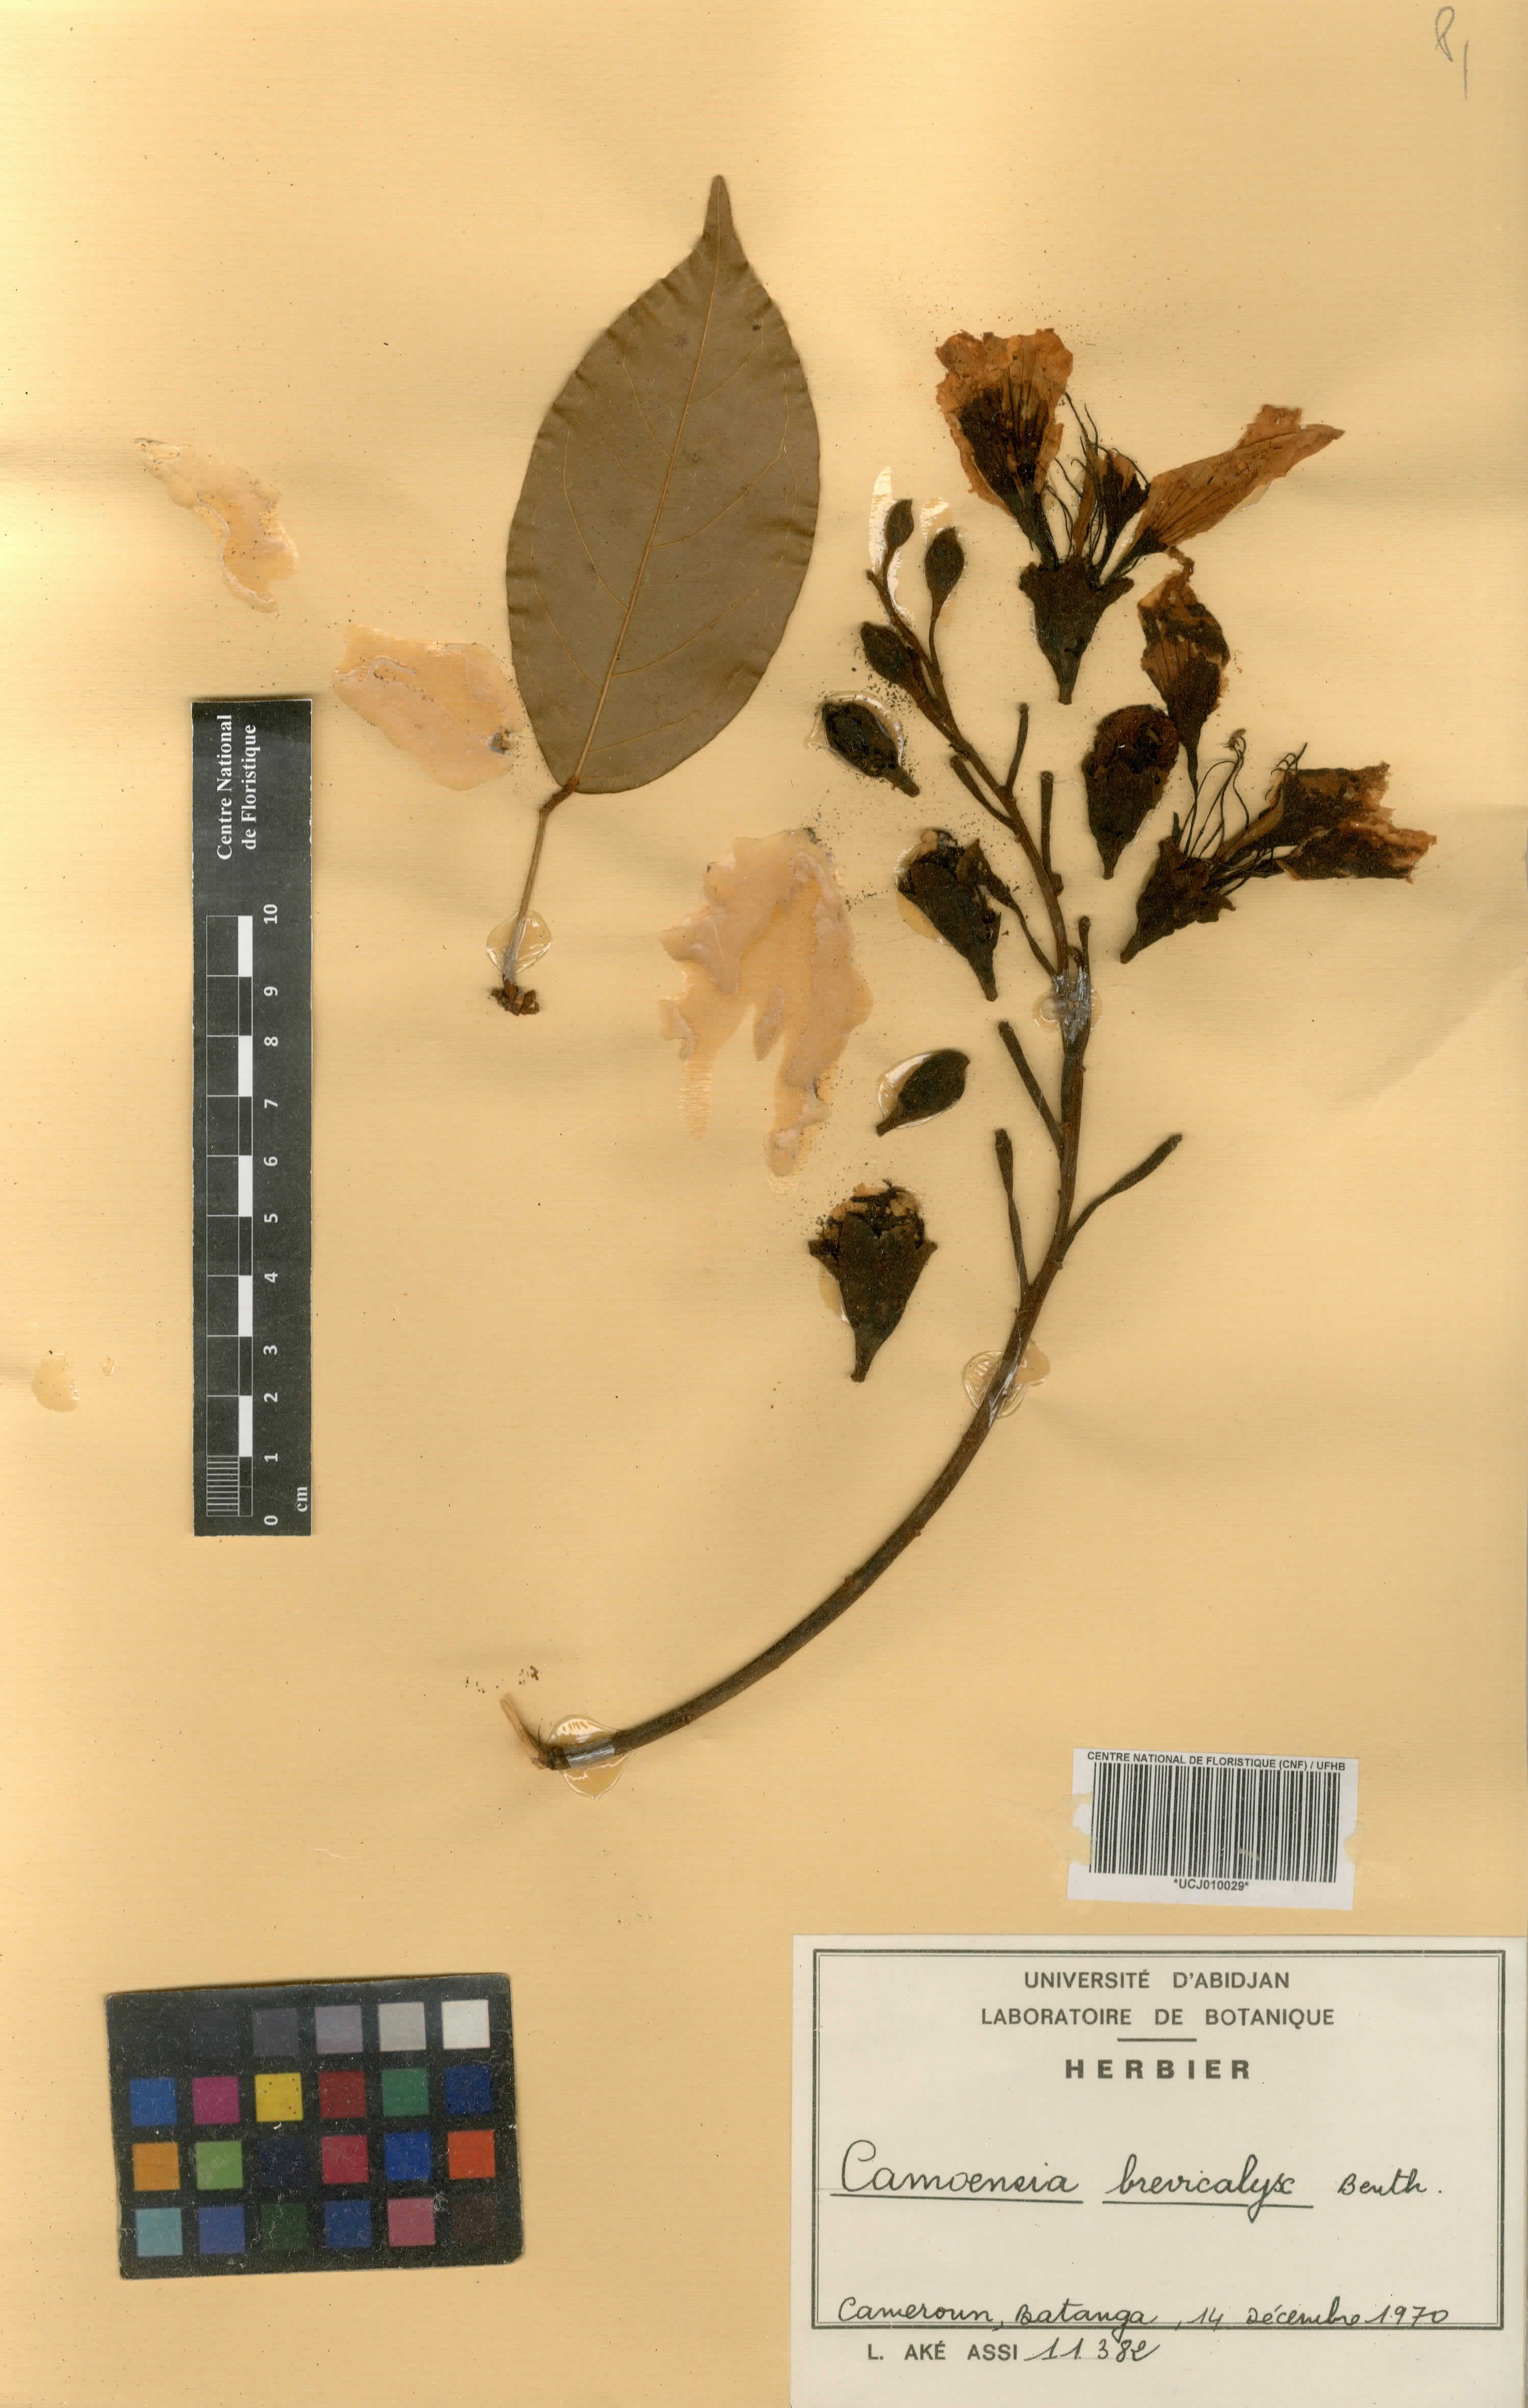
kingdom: Plantae
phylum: Tracheophyta
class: Magnoliopsida
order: Fabales
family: Fabaceae
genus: Camoensia
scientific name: Camoensia brevicalyx
